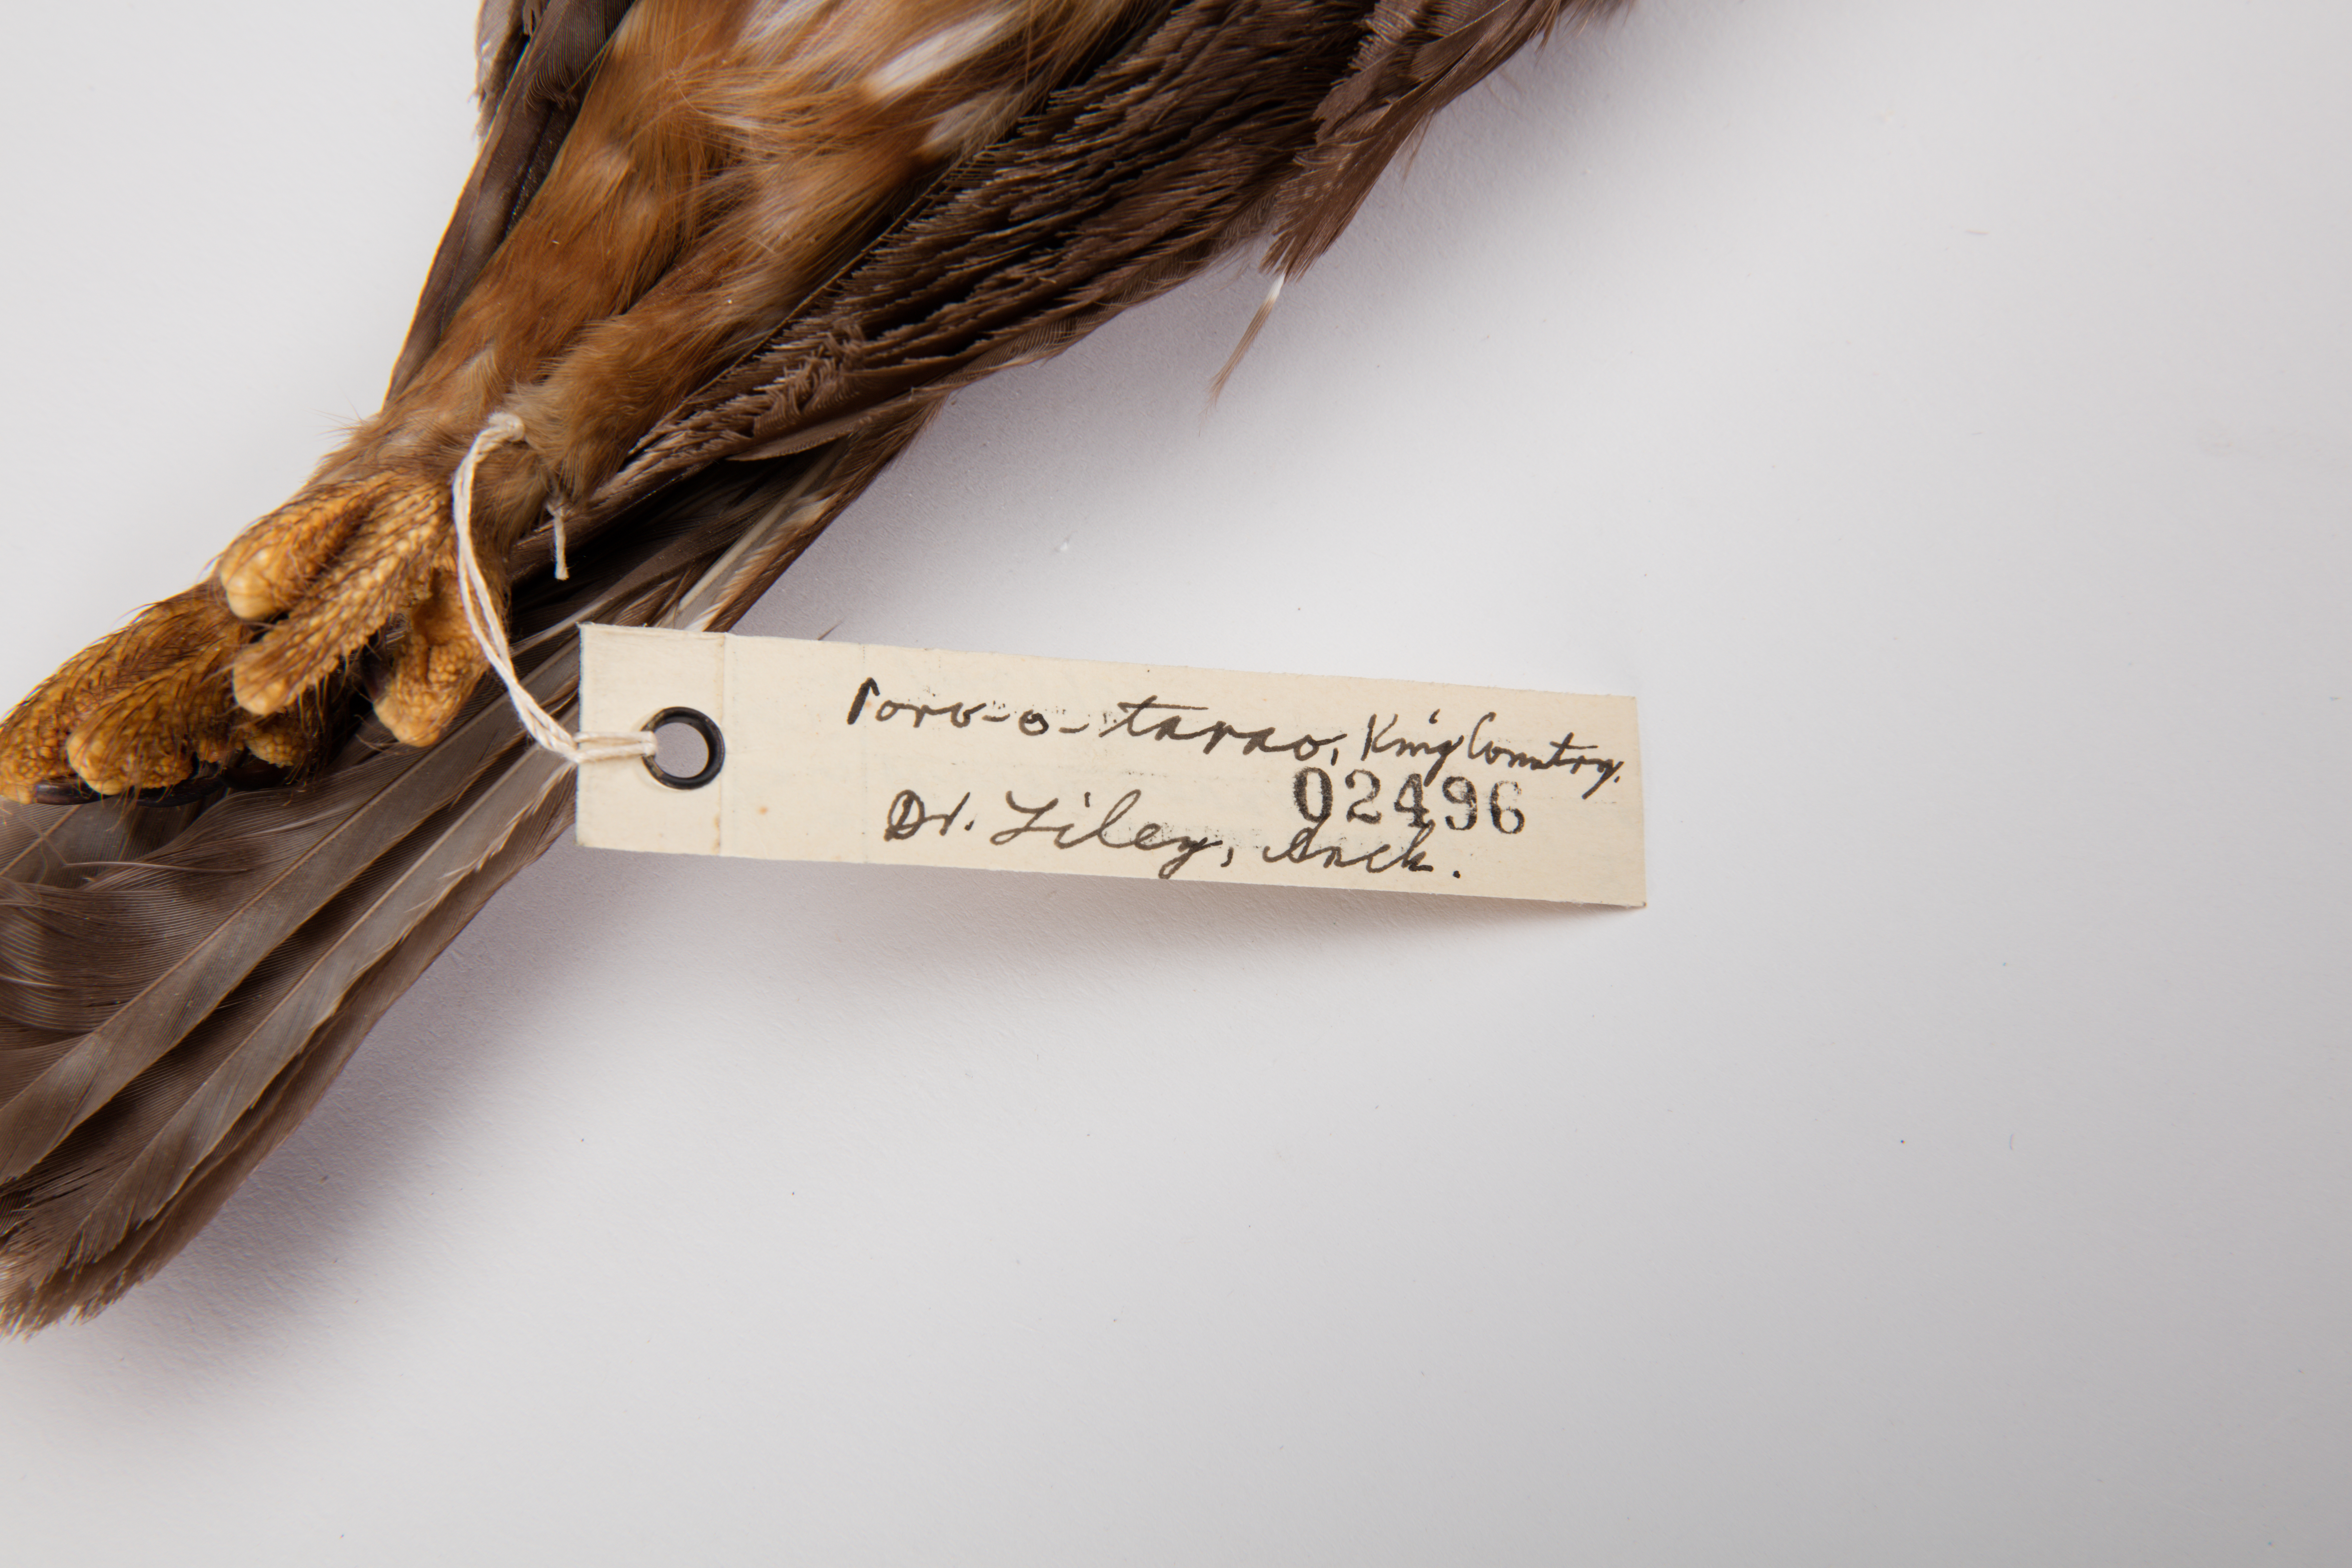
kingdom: Animalia
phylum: Chordata
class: Aves
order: Strigiformes
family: Strigidae
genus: Ninox
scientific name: Ninox novaeseelandiae
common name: Morepork
